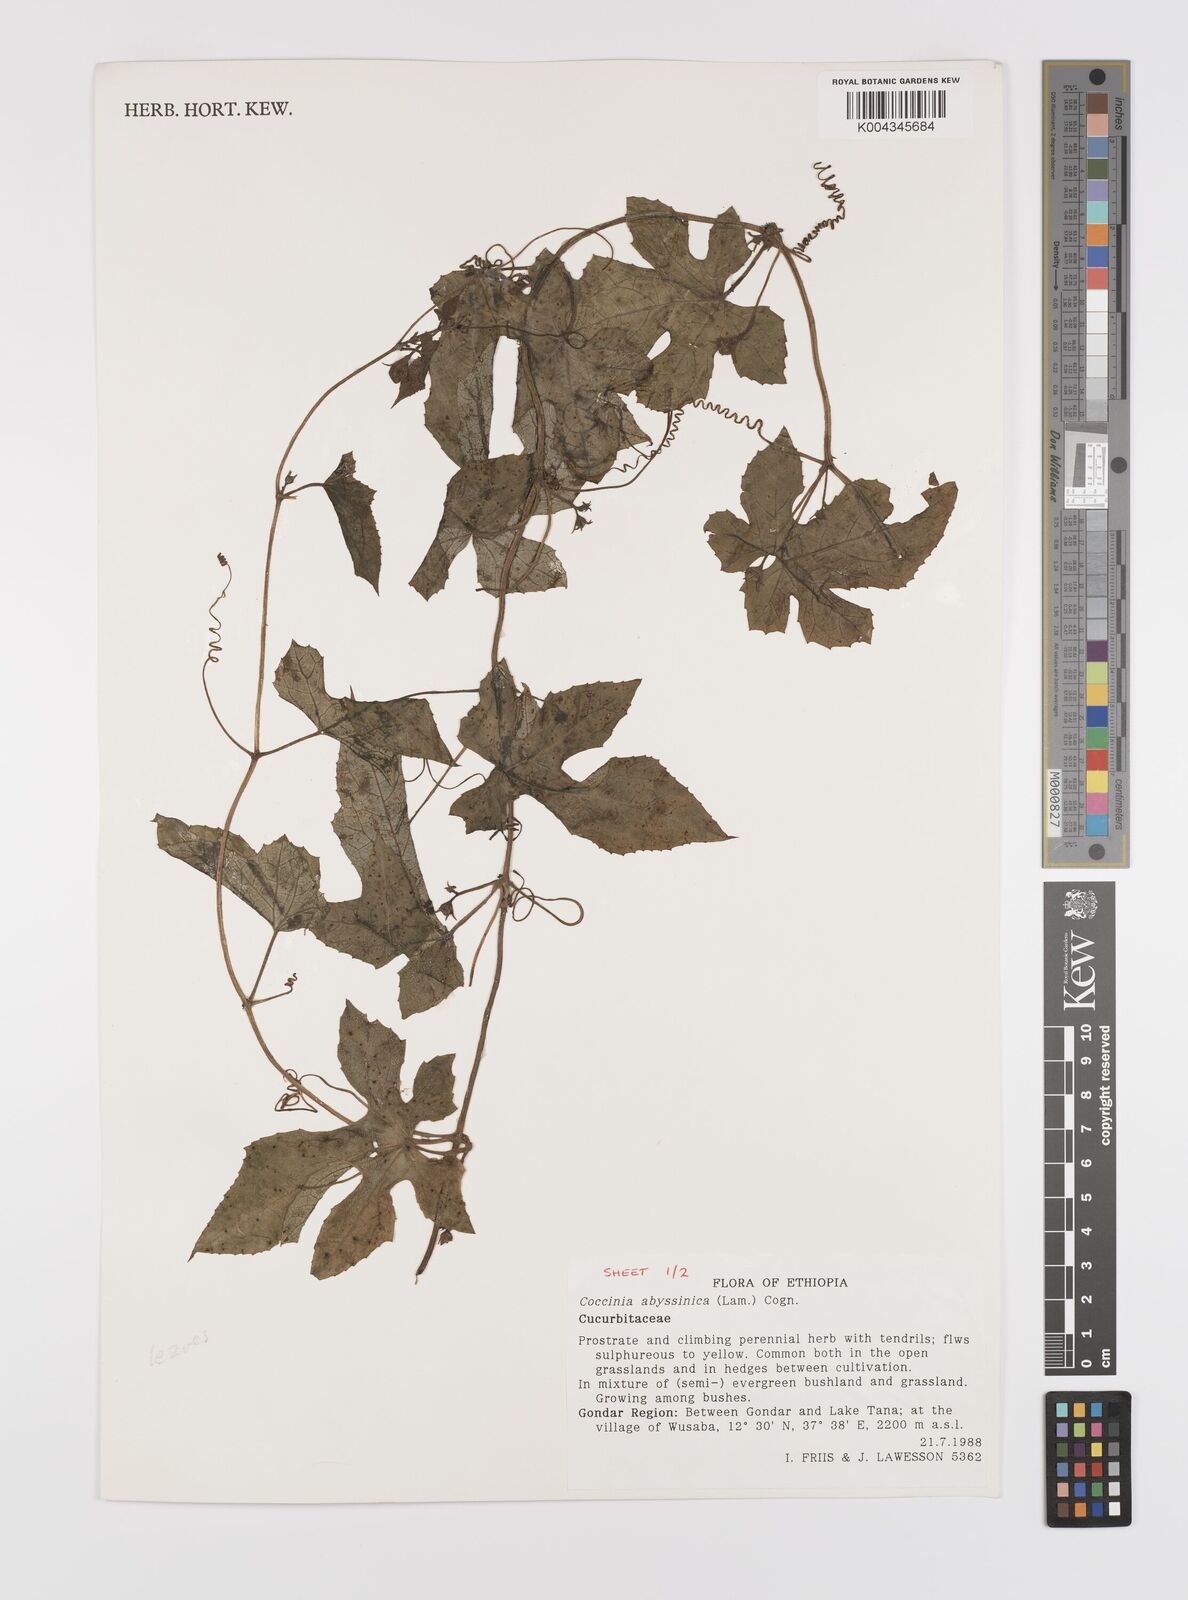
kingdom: Plantae
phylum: Tracheophyta
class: Magnoliopsida
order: Cucurbitales
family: Cucurbitaceae
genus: Coccinia
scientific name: Coccinia abyssinica
